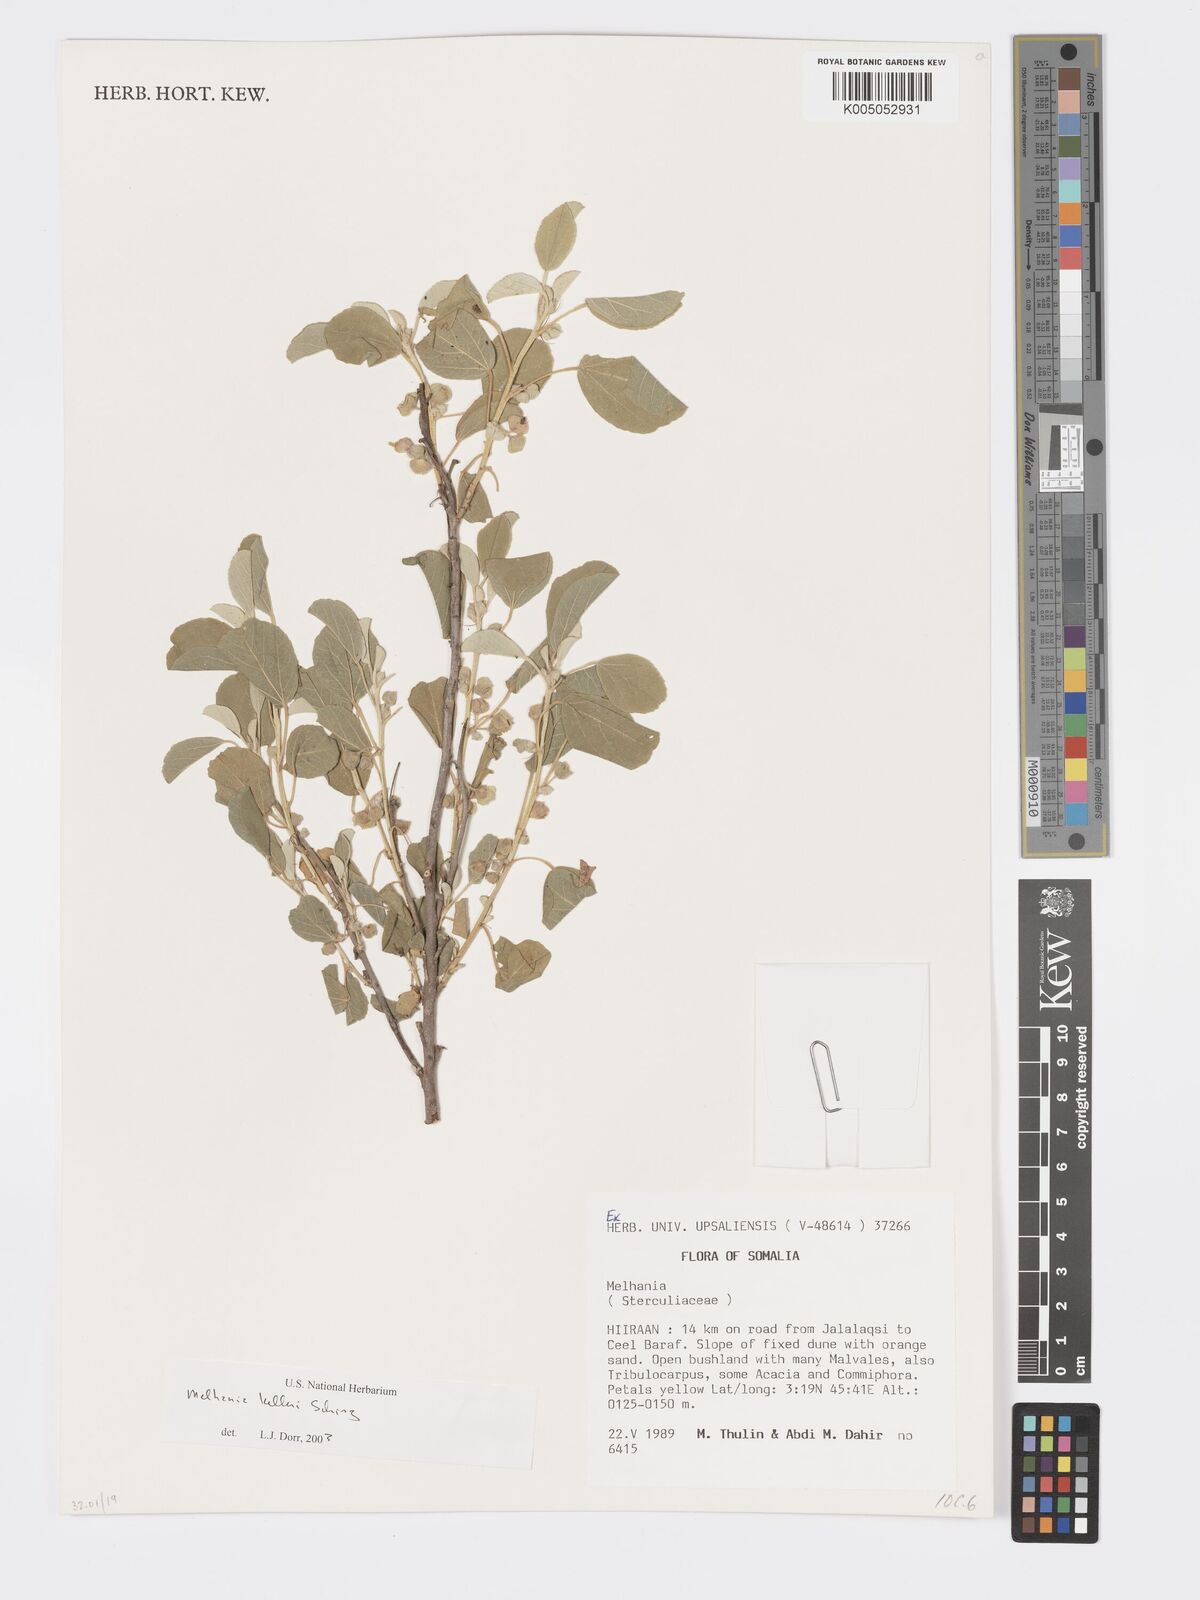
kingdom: Plantae
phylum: Tracheophyta
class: Magnoliopsida
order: Malvales
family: Malvaceae
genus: Melhania
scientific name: Melhania kelleri
